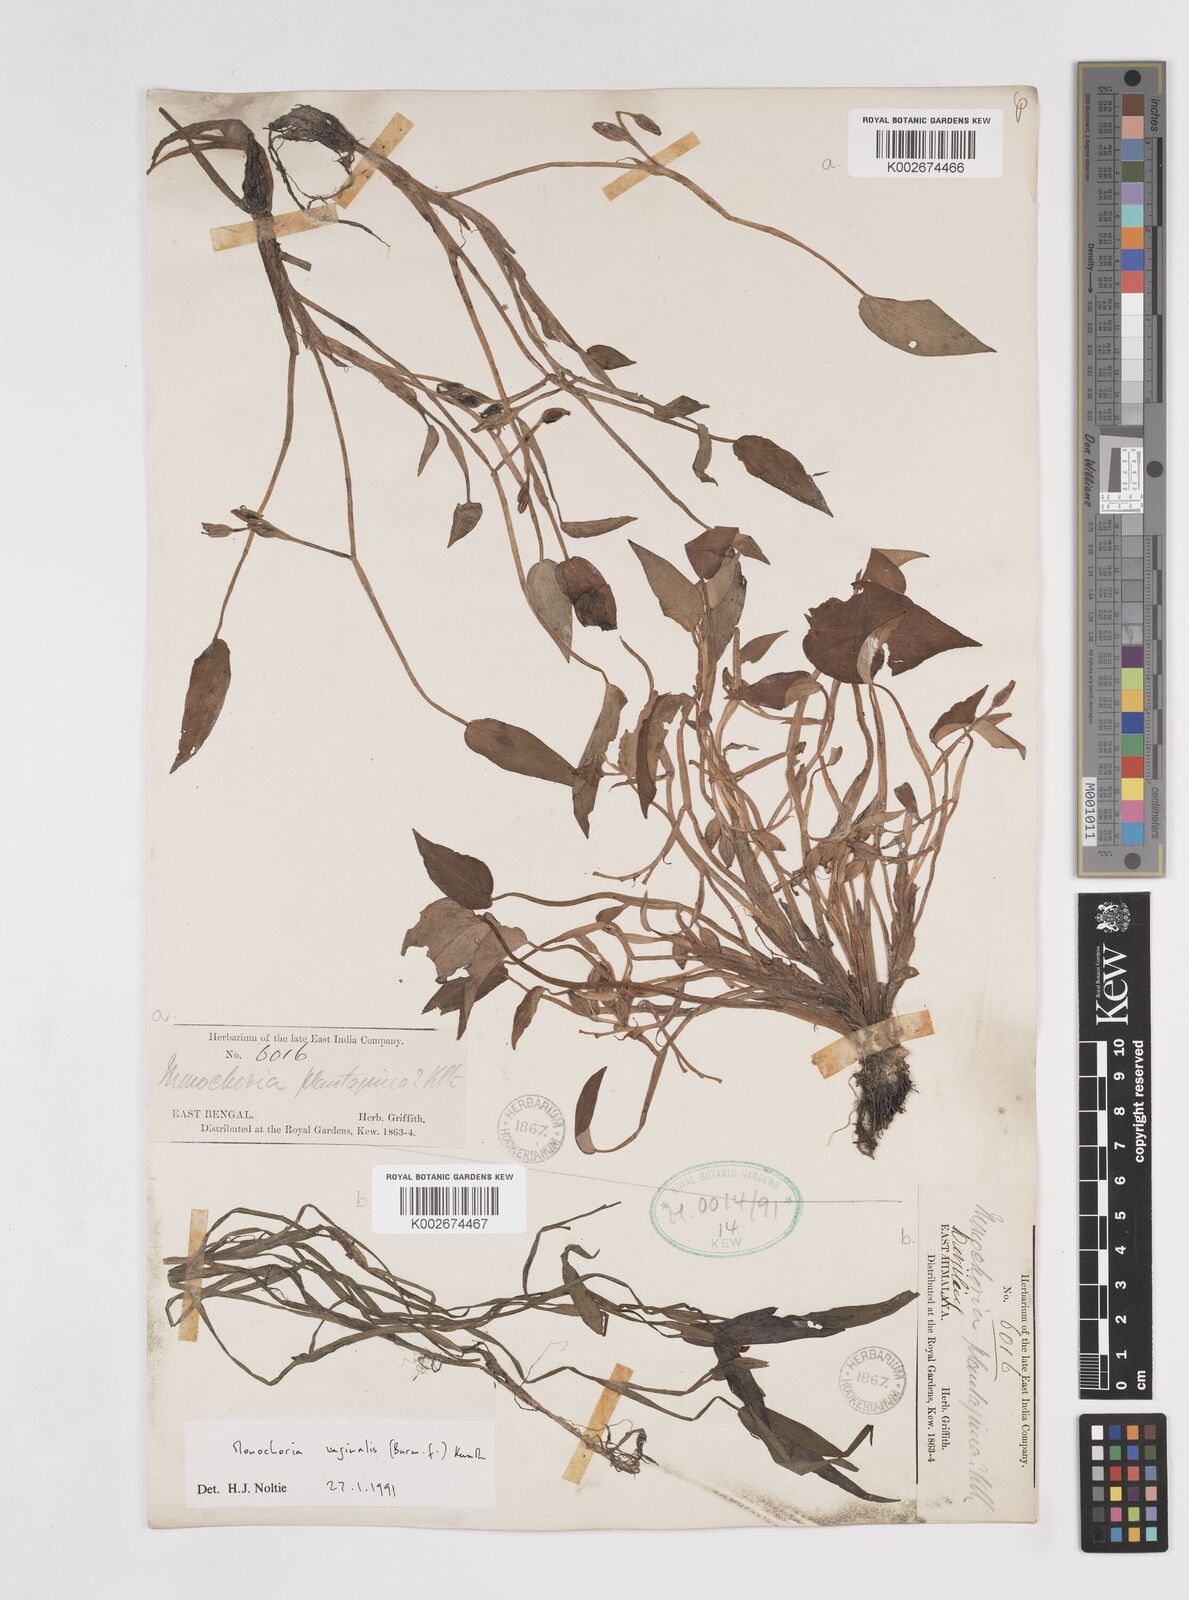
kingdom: Plantae
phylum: Tracheophyta
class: Liliopsida
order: Commelinales
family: Pontederiaceae
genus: Pontederia
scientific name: Pontederia vaginalis
